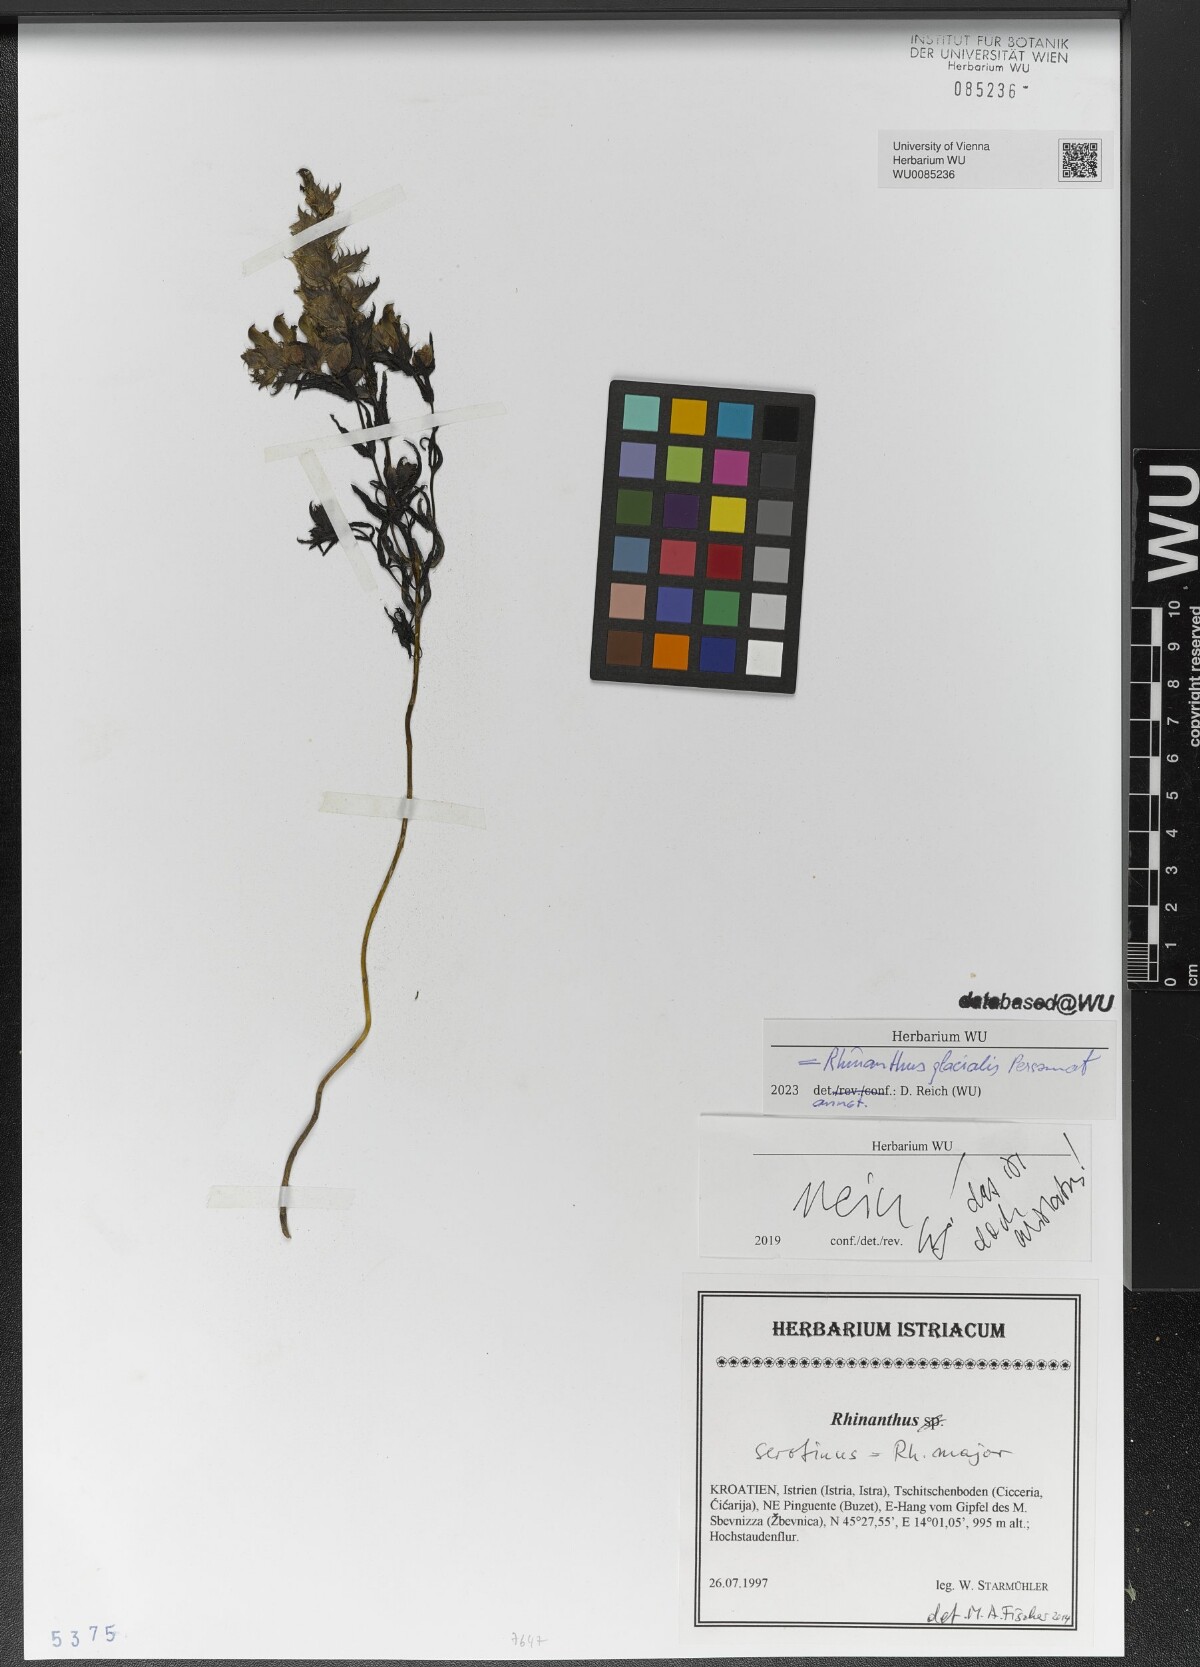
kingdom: Plantae
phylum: Tracheophyta
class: Magnoliopsida
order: Lamiales
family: Orobanchaceae
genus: Rhinanthus
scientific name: Rhinanthus glacialis
